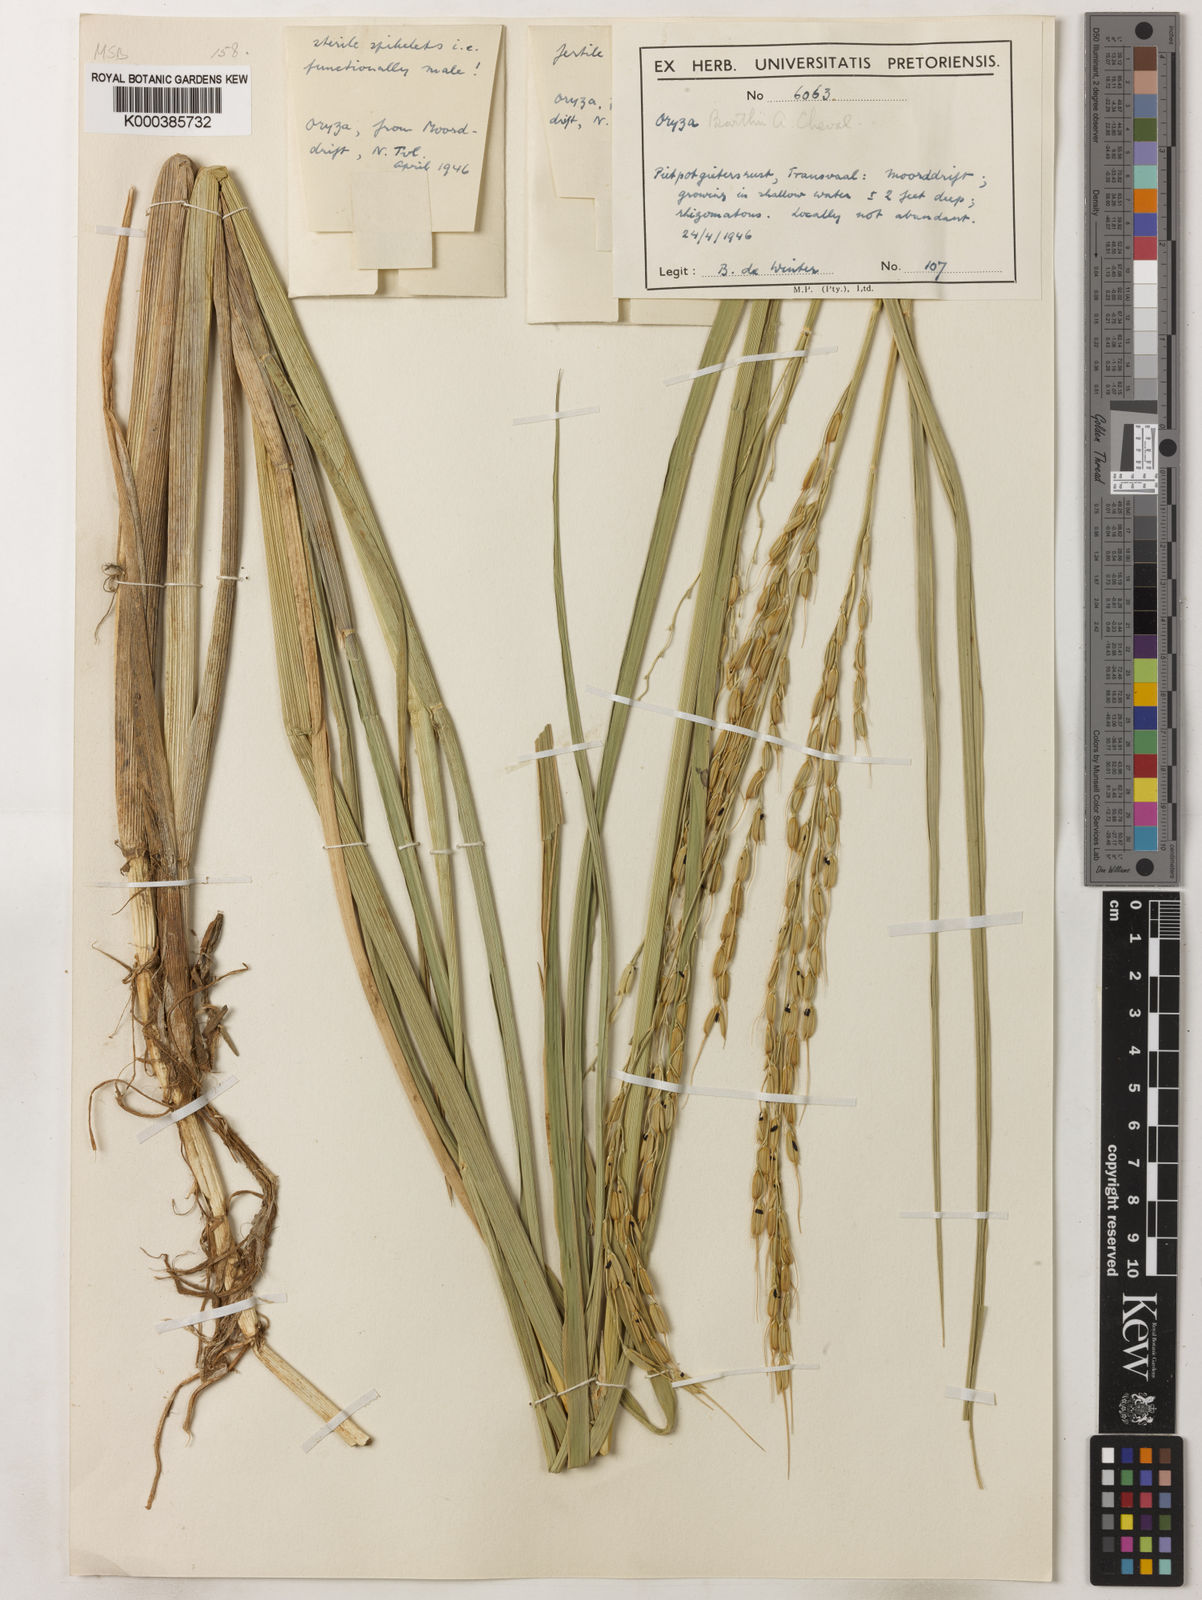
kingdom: Plantae
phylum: Tracheophyta
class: Liliopsida
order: Poales
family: Poaceae
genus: Oryza
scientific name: Oryza longistaminata
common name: Red rice
